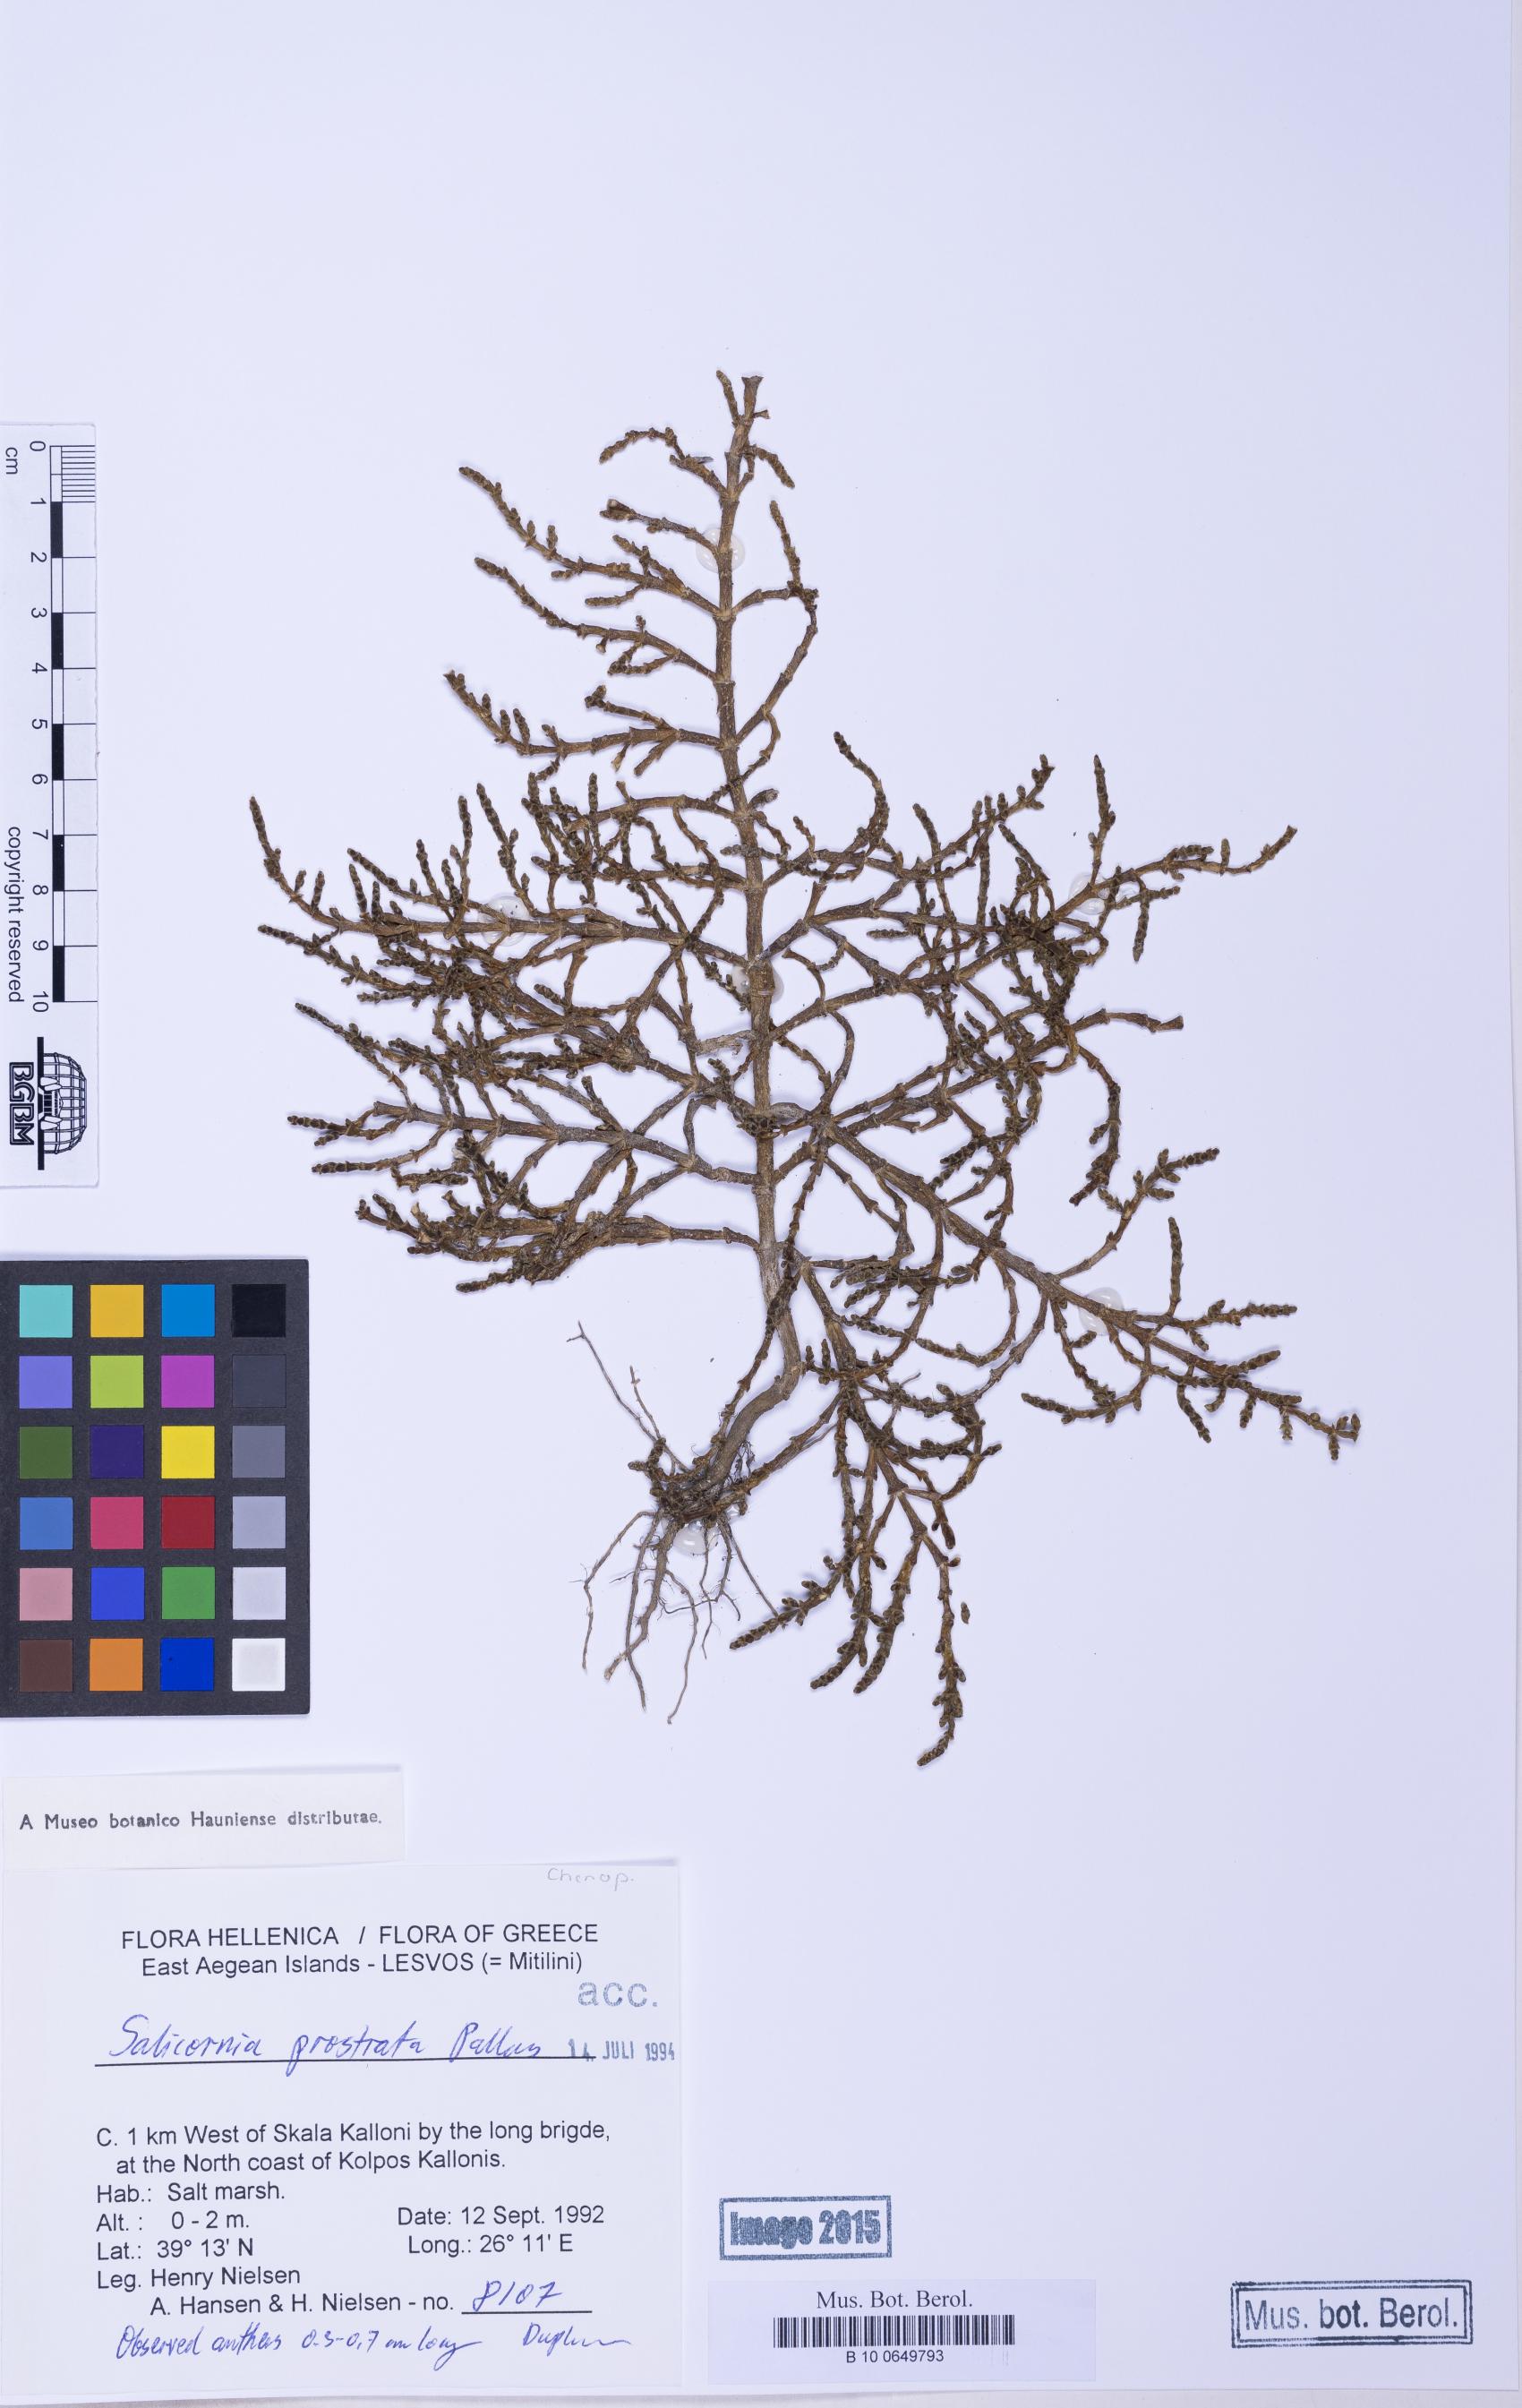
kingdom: Plantae
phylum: Tracheophyta
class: Magnoliopsida
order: Caryophyllales
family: Amaranthaceae
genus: Salicornia
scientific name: Salicornia perennans
